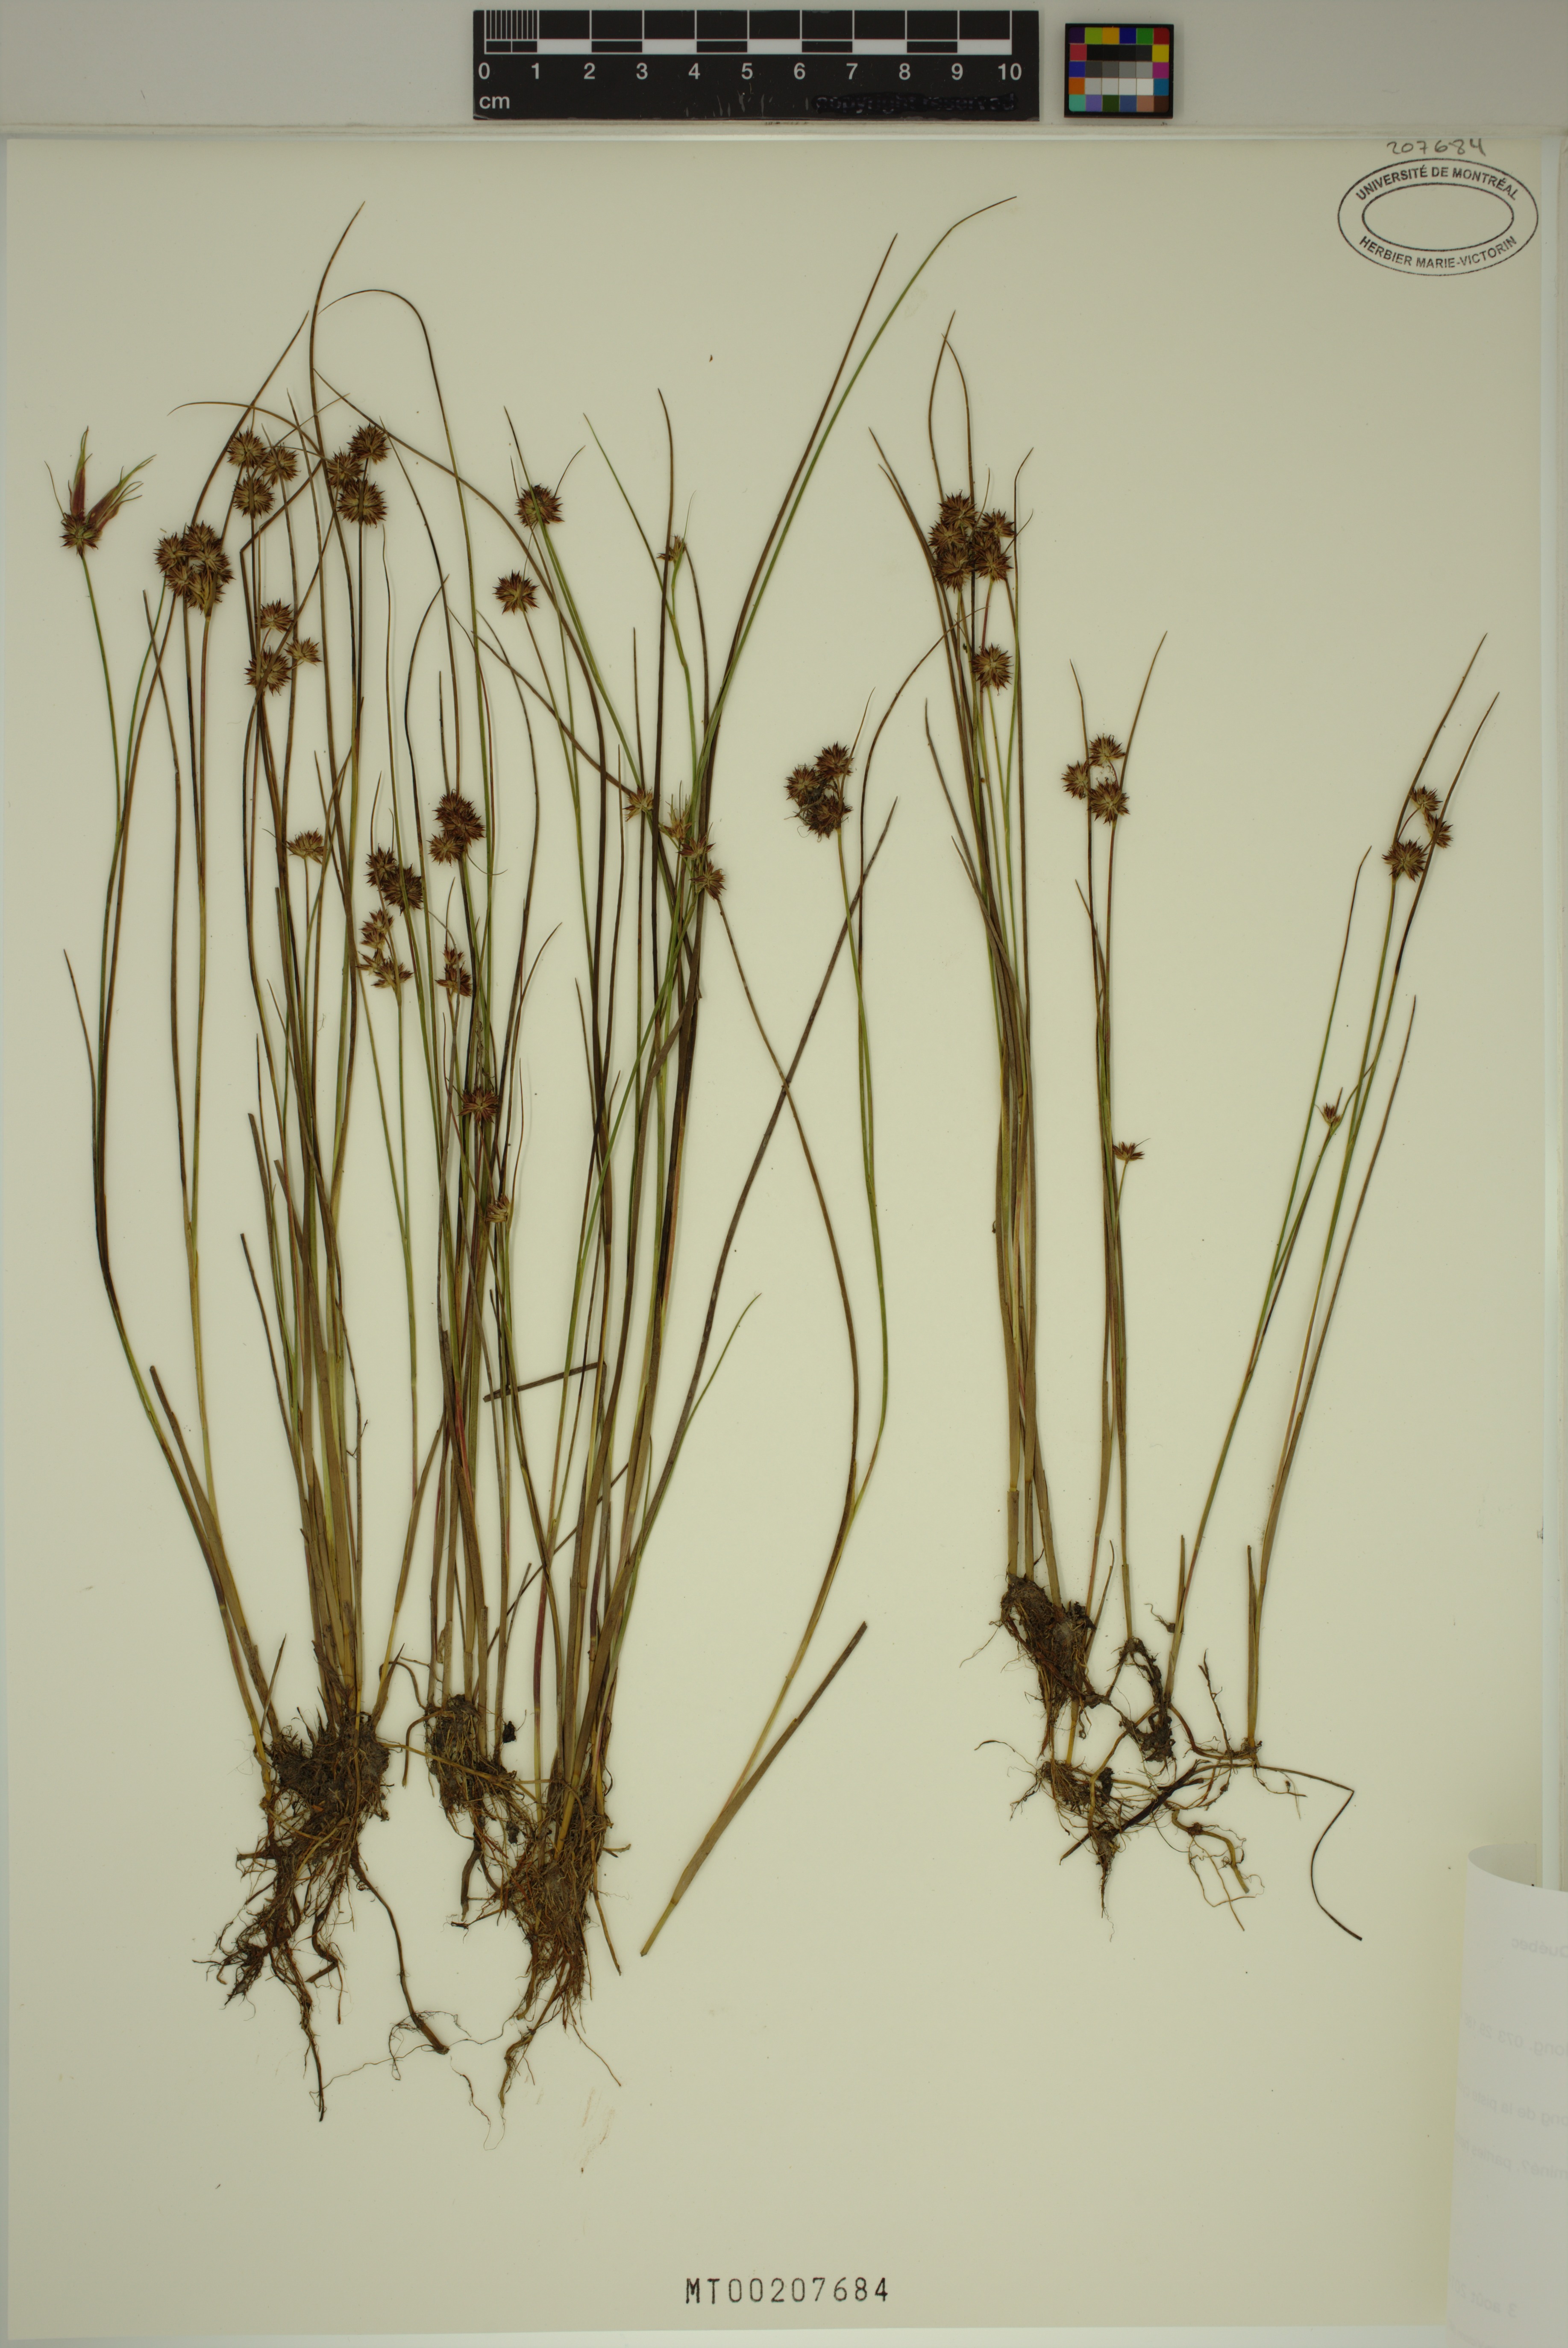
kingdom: Plantae
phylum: Tracheophyta
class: Liliopsida
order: Poales
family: Juncaceae
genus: Juncus
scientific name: Juncus nodosus
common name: Knotted rush
